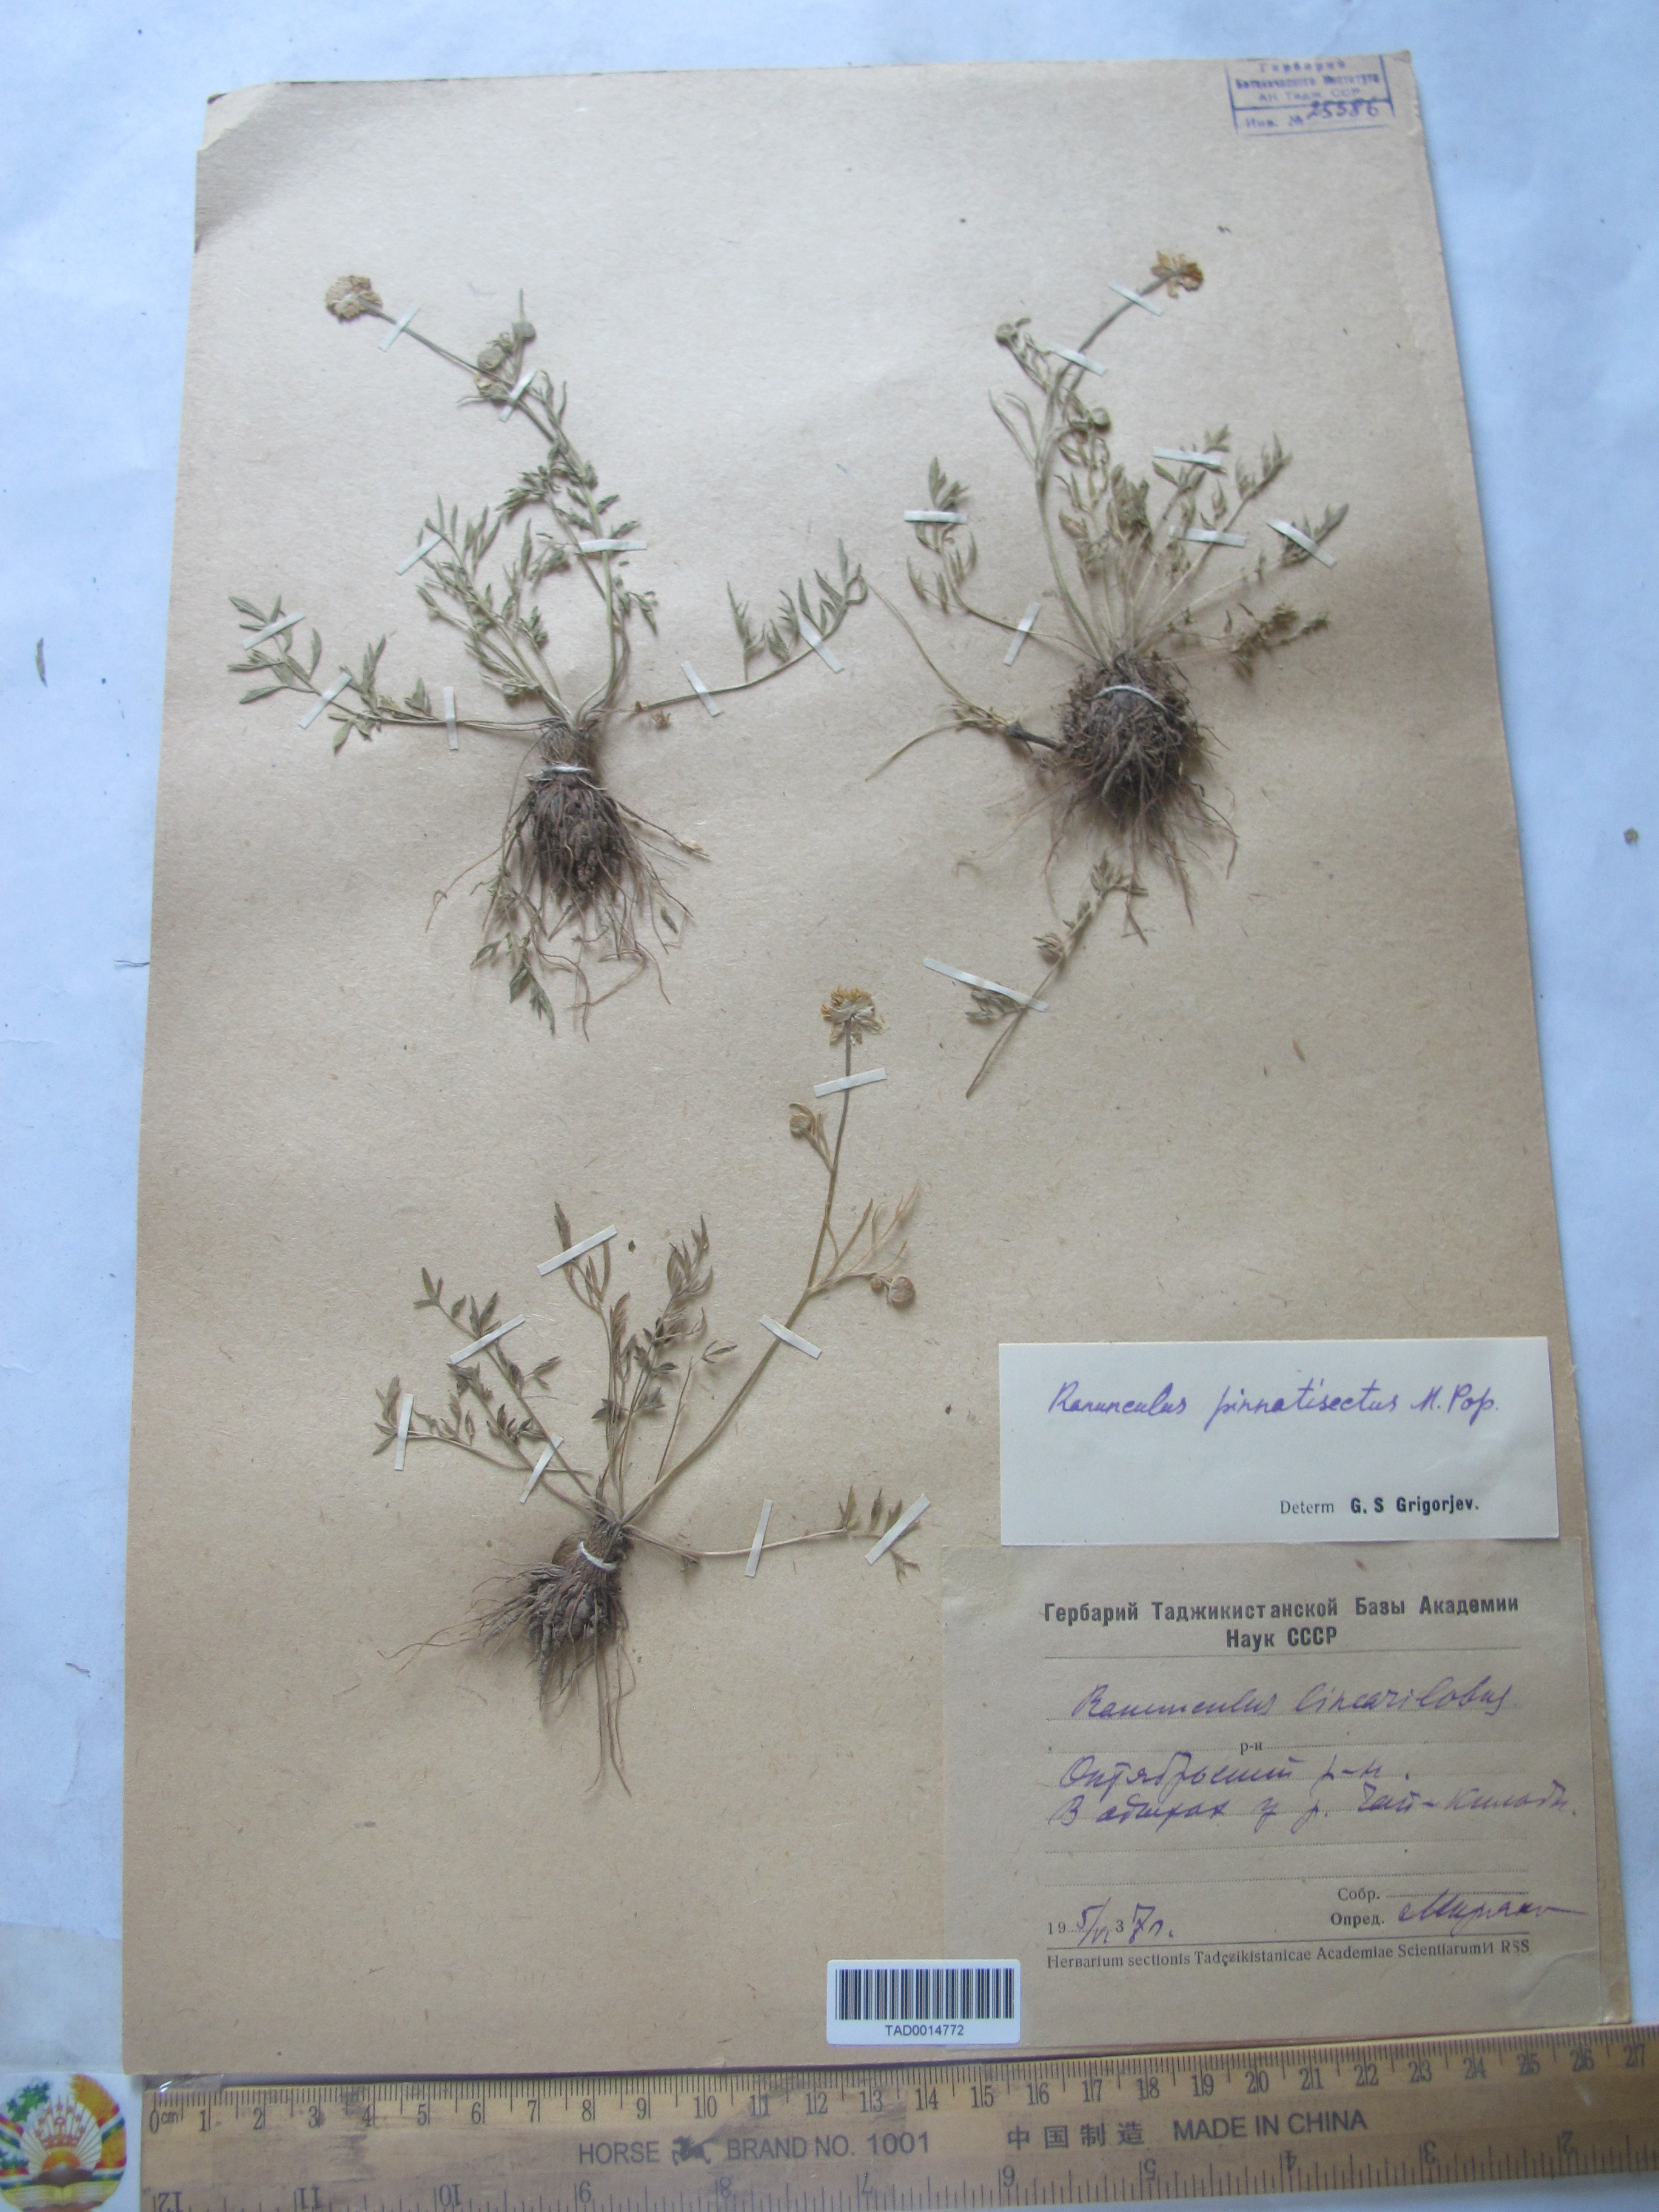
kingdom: Plantae
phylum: Tracheophyta
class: Magnoliopsida
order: Ranunculales
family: Ranunculaceae
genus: Ranunculus
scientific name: Ranunculus linearilobus
